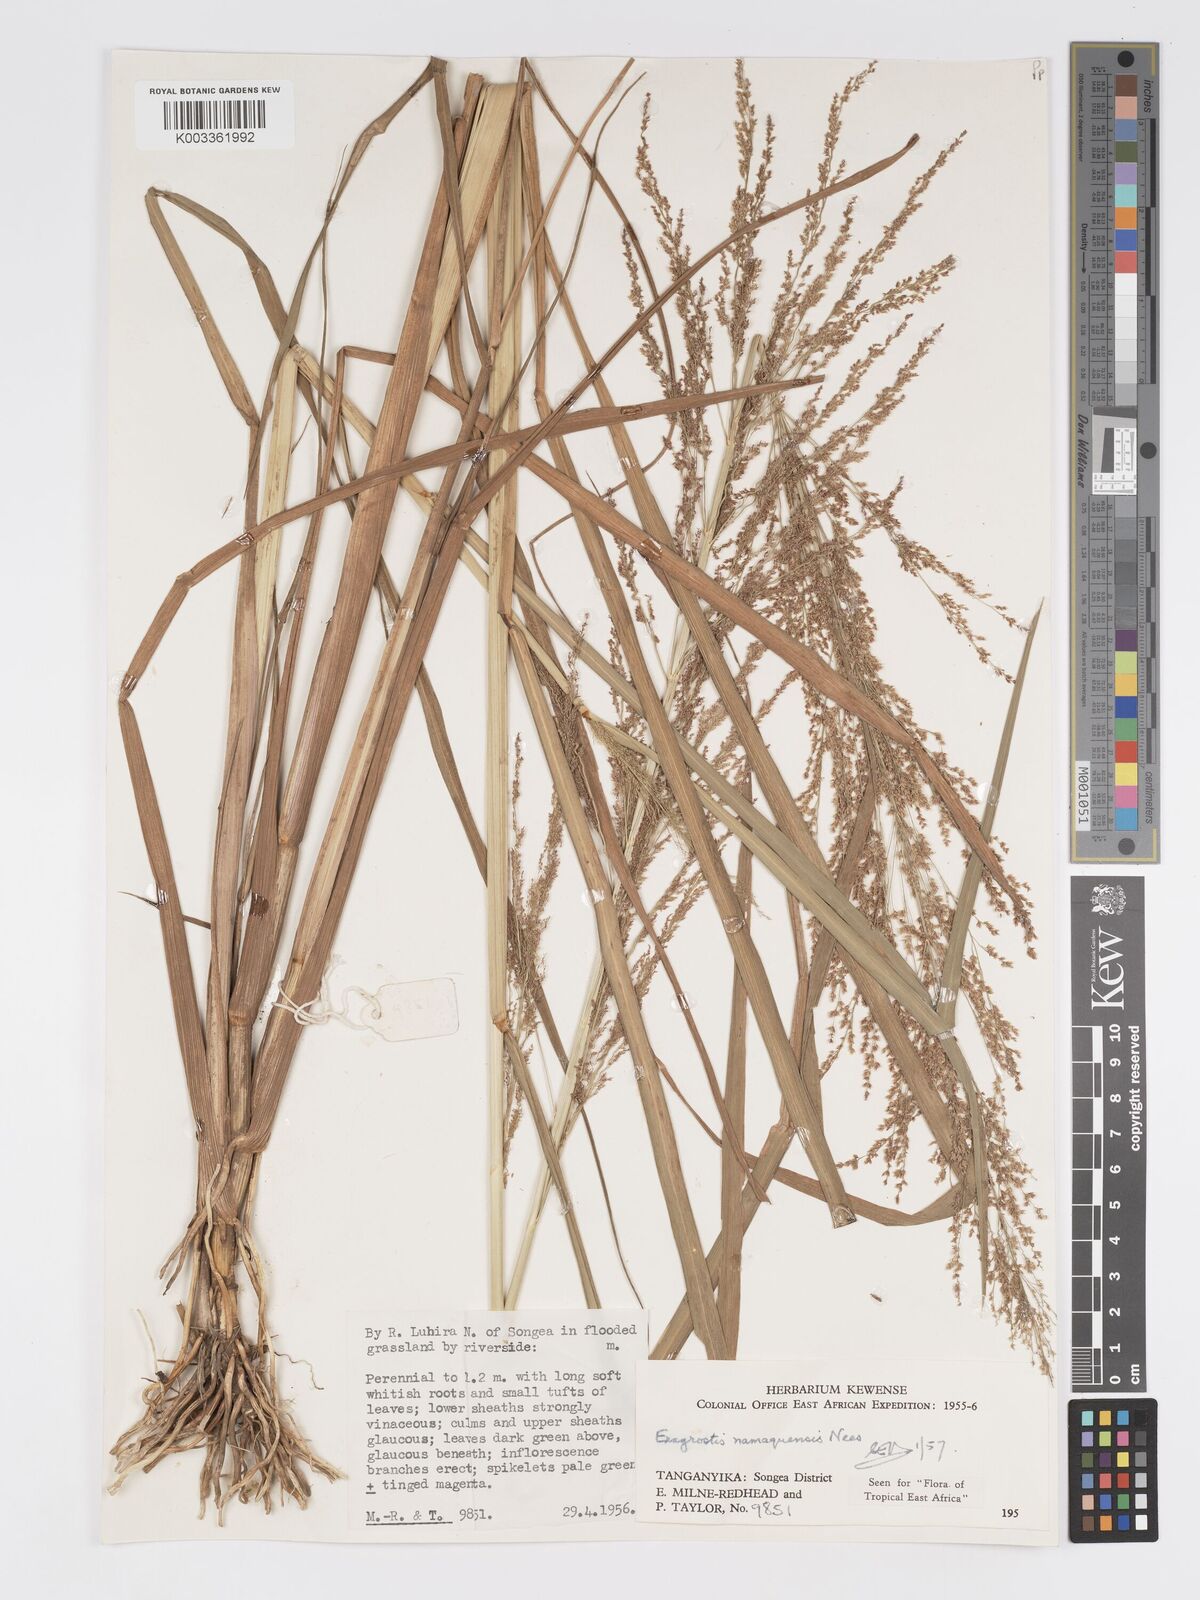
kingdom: Plantae
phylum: Tracheophyta
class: Liliopsida
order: Poales
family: Poaceae
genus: Eragrostis
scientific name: Eragrostis japonica
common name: Pond lovegrass
